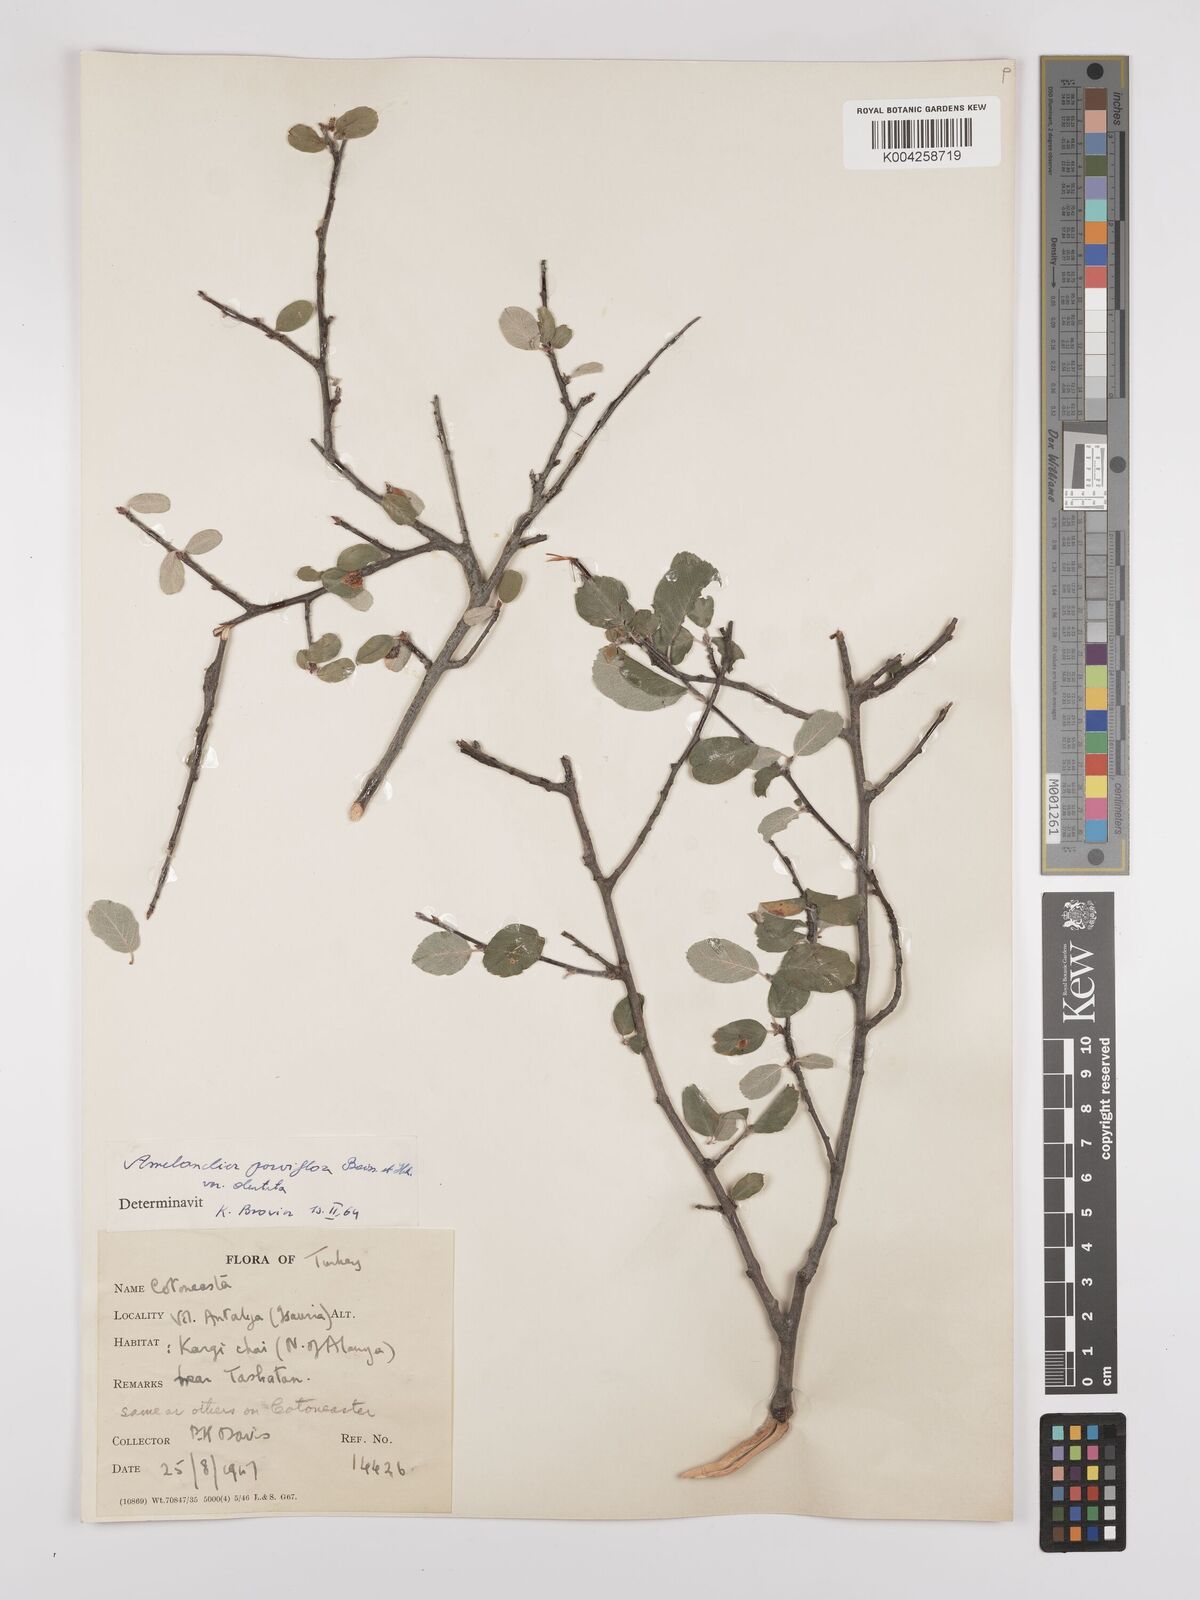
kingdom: Plantae
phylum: Tracheophyta
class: Magnoliopsida
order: Rosales
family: Rosaceae
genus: Amelanchier
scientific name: Amelanchier parviflora
